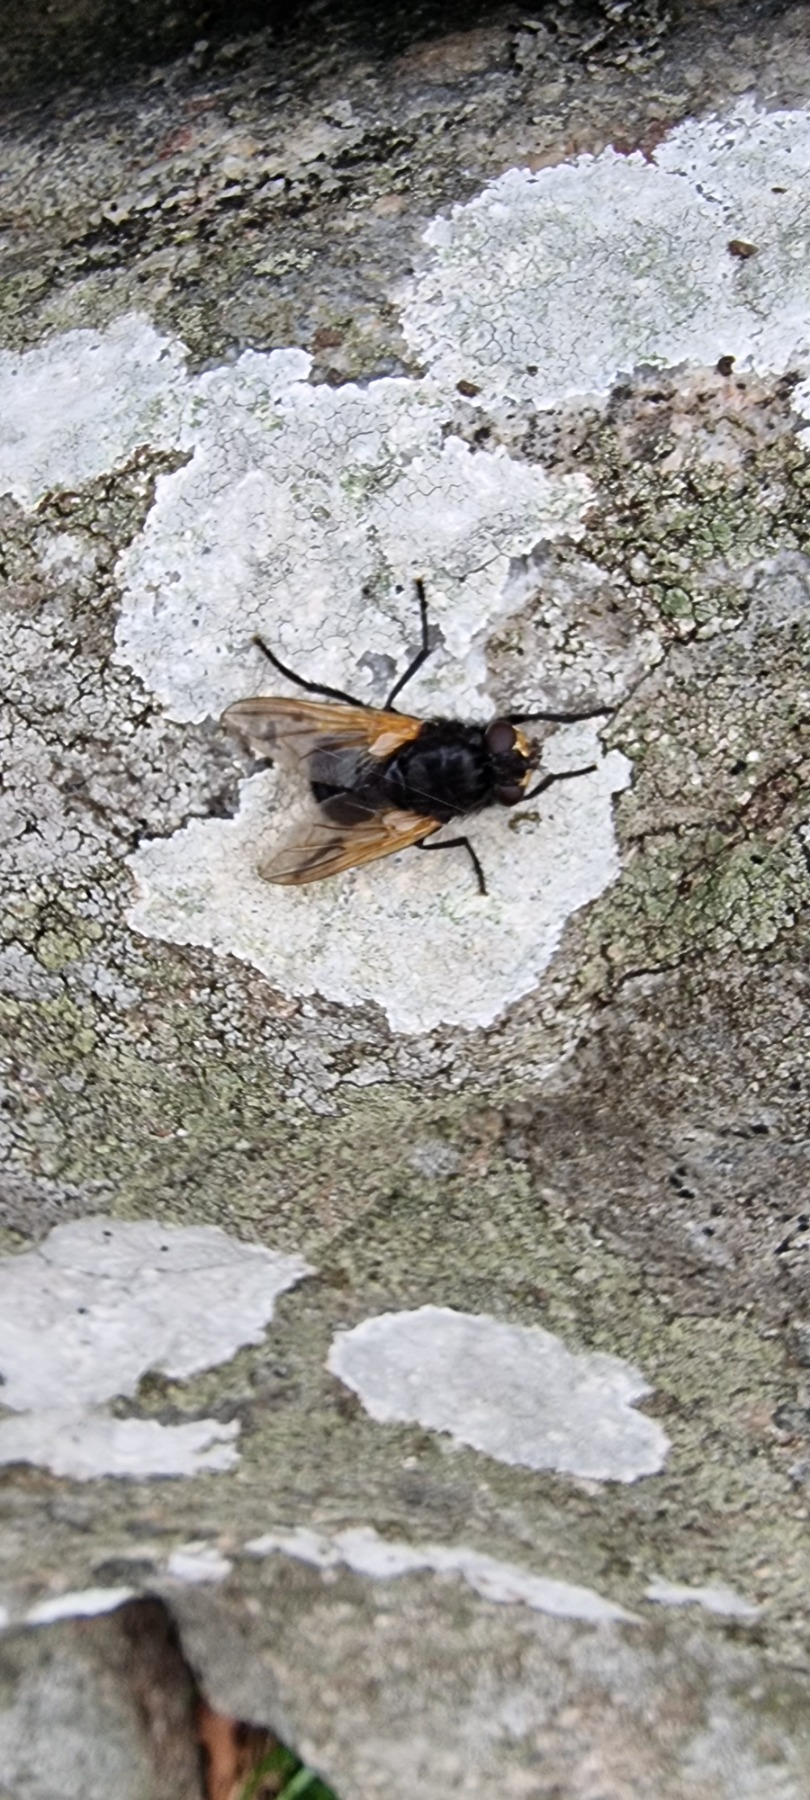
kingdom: Animalia
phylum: Arthropoda
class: Insecta
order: Diptera
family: Muscidae
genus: Mesembrina
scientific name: Mesembrina meridiana
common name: Gulvinget flue
